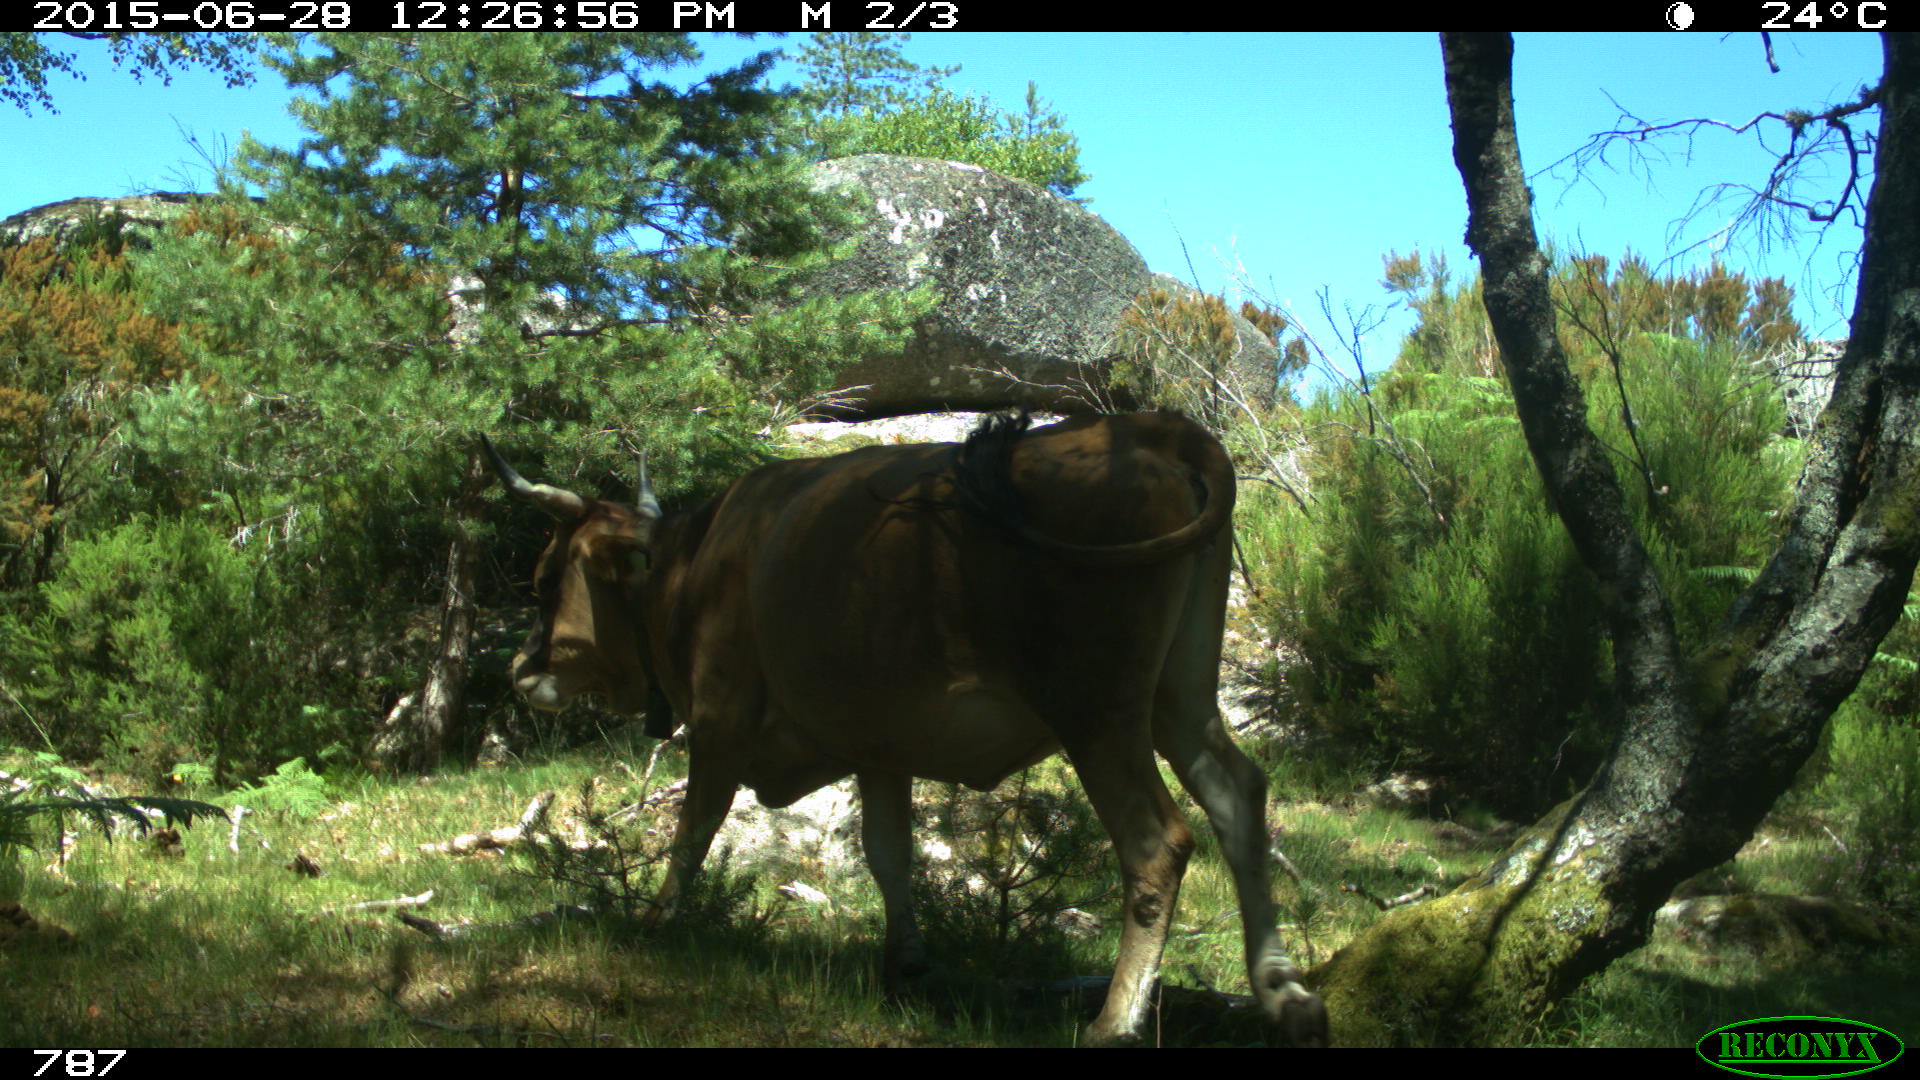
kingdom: Animalia
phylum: Chordata
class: Mammalia
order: Artiodactyla
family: Bovidae
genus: Bos
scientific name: Bos taurus
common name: Domesticated cattle
